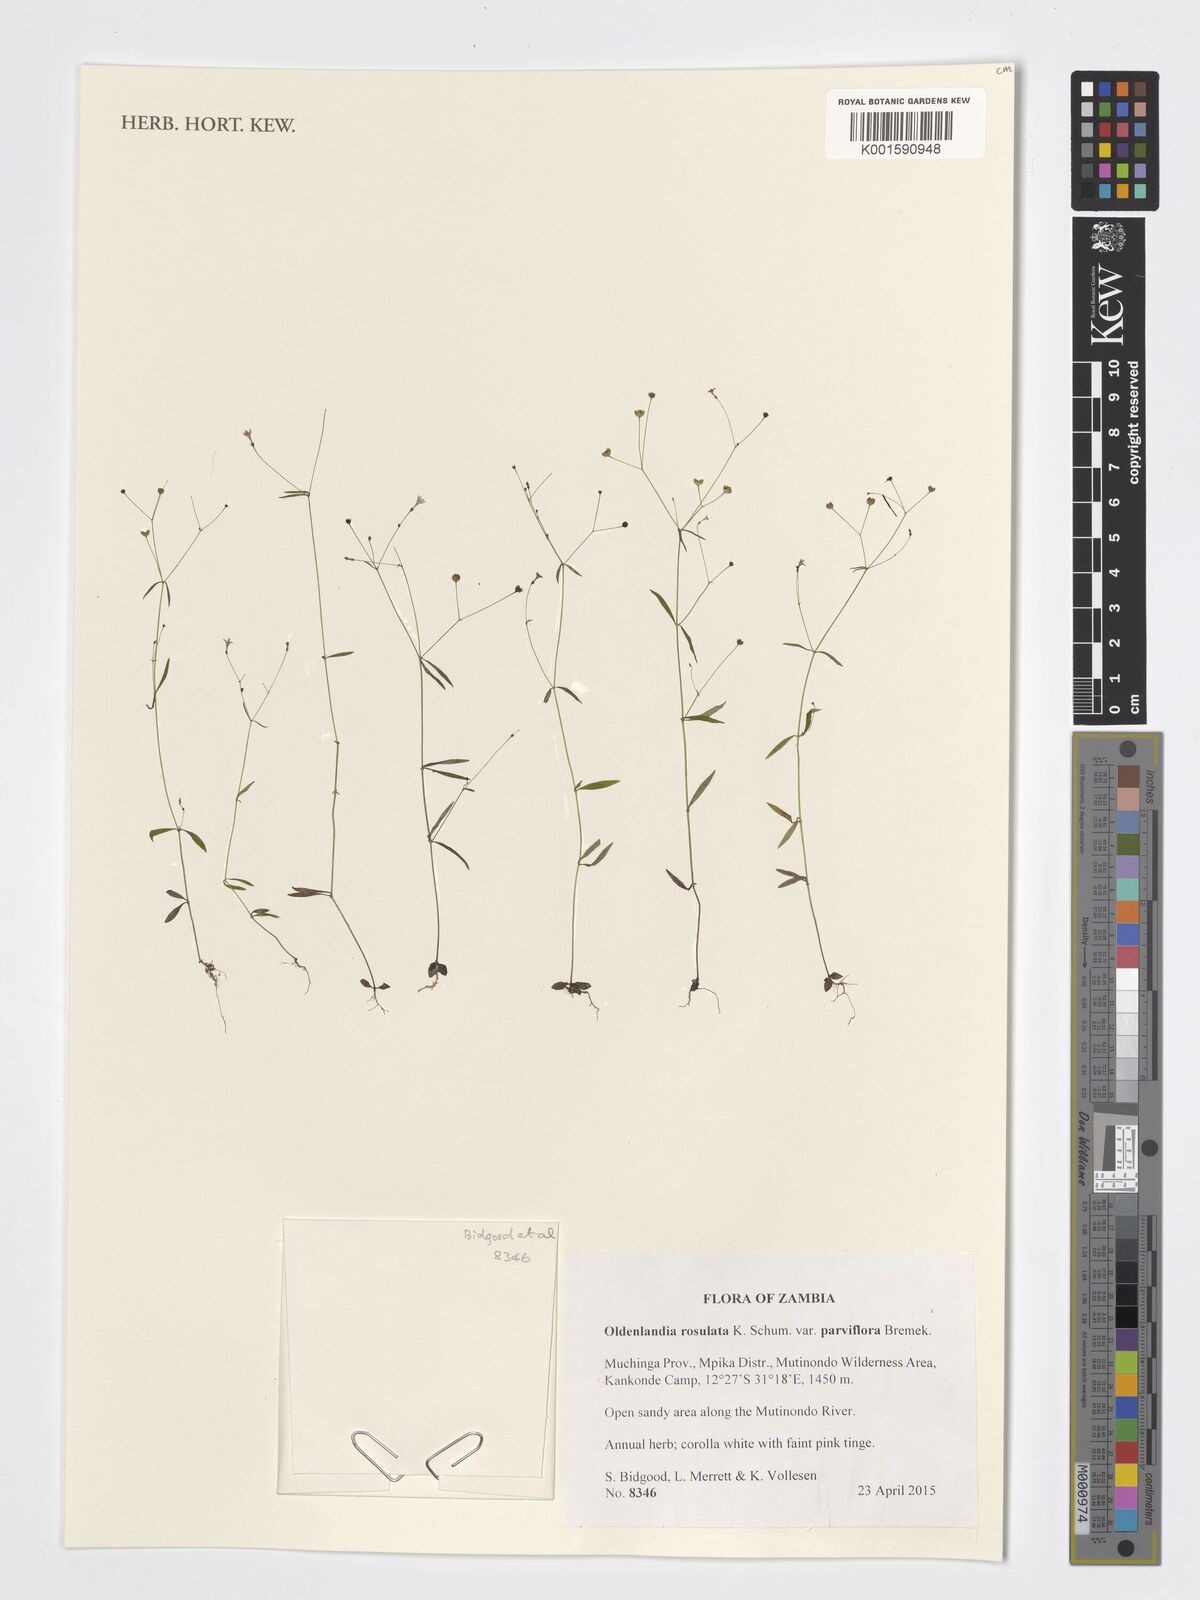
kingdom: Plantae
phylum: Tracheophyta
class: Magnoliopsida
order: Gentianales
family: Rubiaceae
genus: Oldenlandia
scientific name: Oldenlandia rosulata
